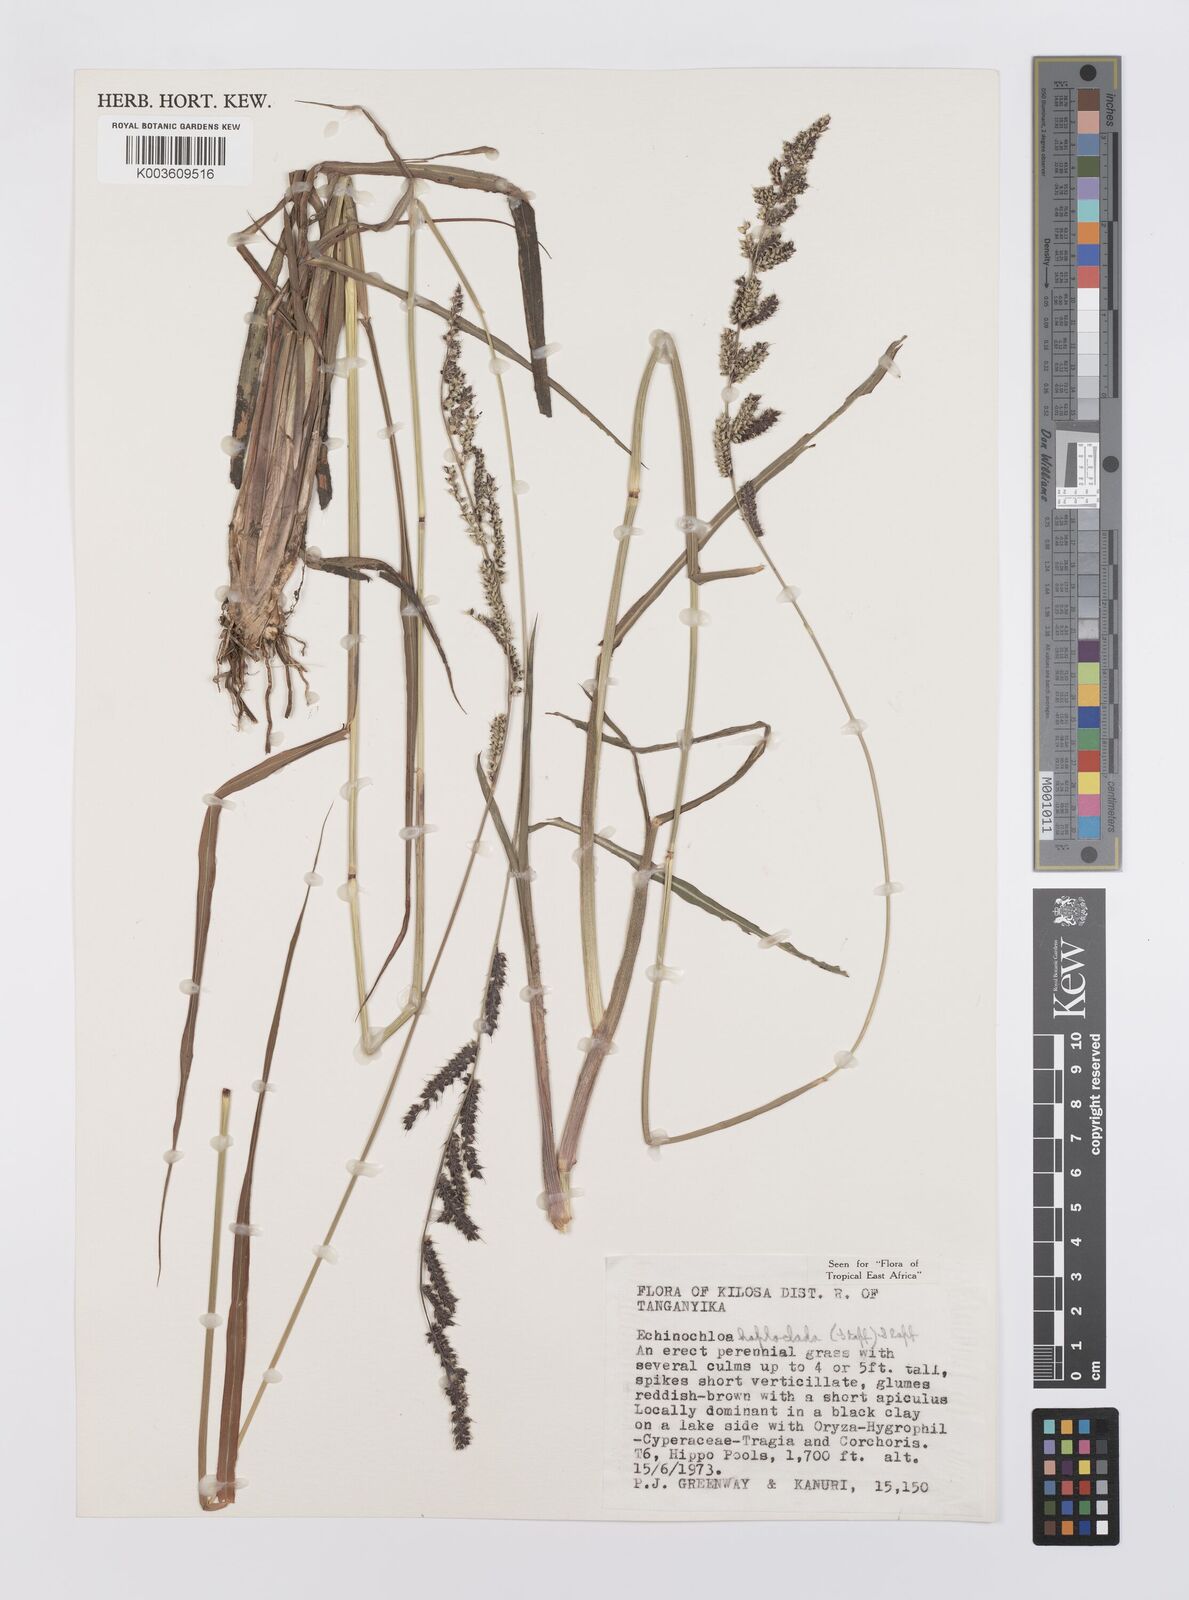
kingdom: Plantae
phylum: Tracheophyta
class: Liliopsida
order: Poales
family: Poaceae
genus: Echinochloa
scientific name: Echinochloa haploclada
